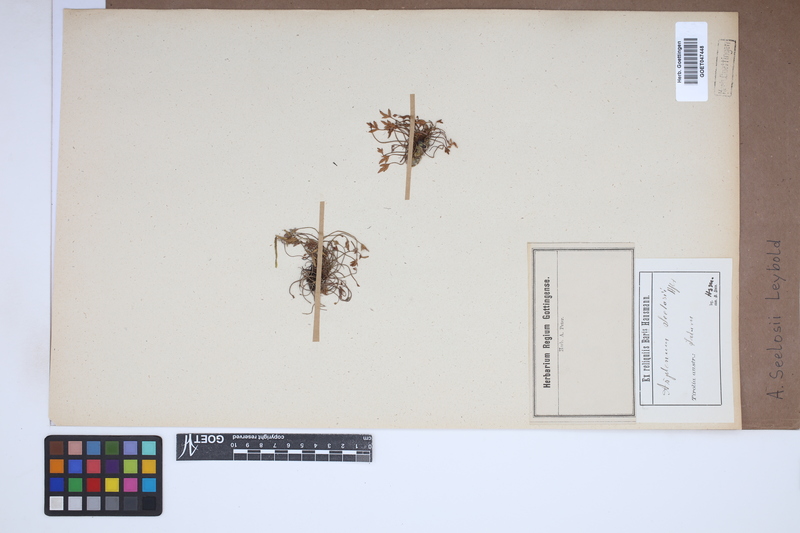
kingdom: Plantae
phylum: Tracheophyta
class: Polypodiopsida
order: Polypodiales
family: Aspleniaceae
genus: Asplenium
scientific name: Asplenium seelosii
